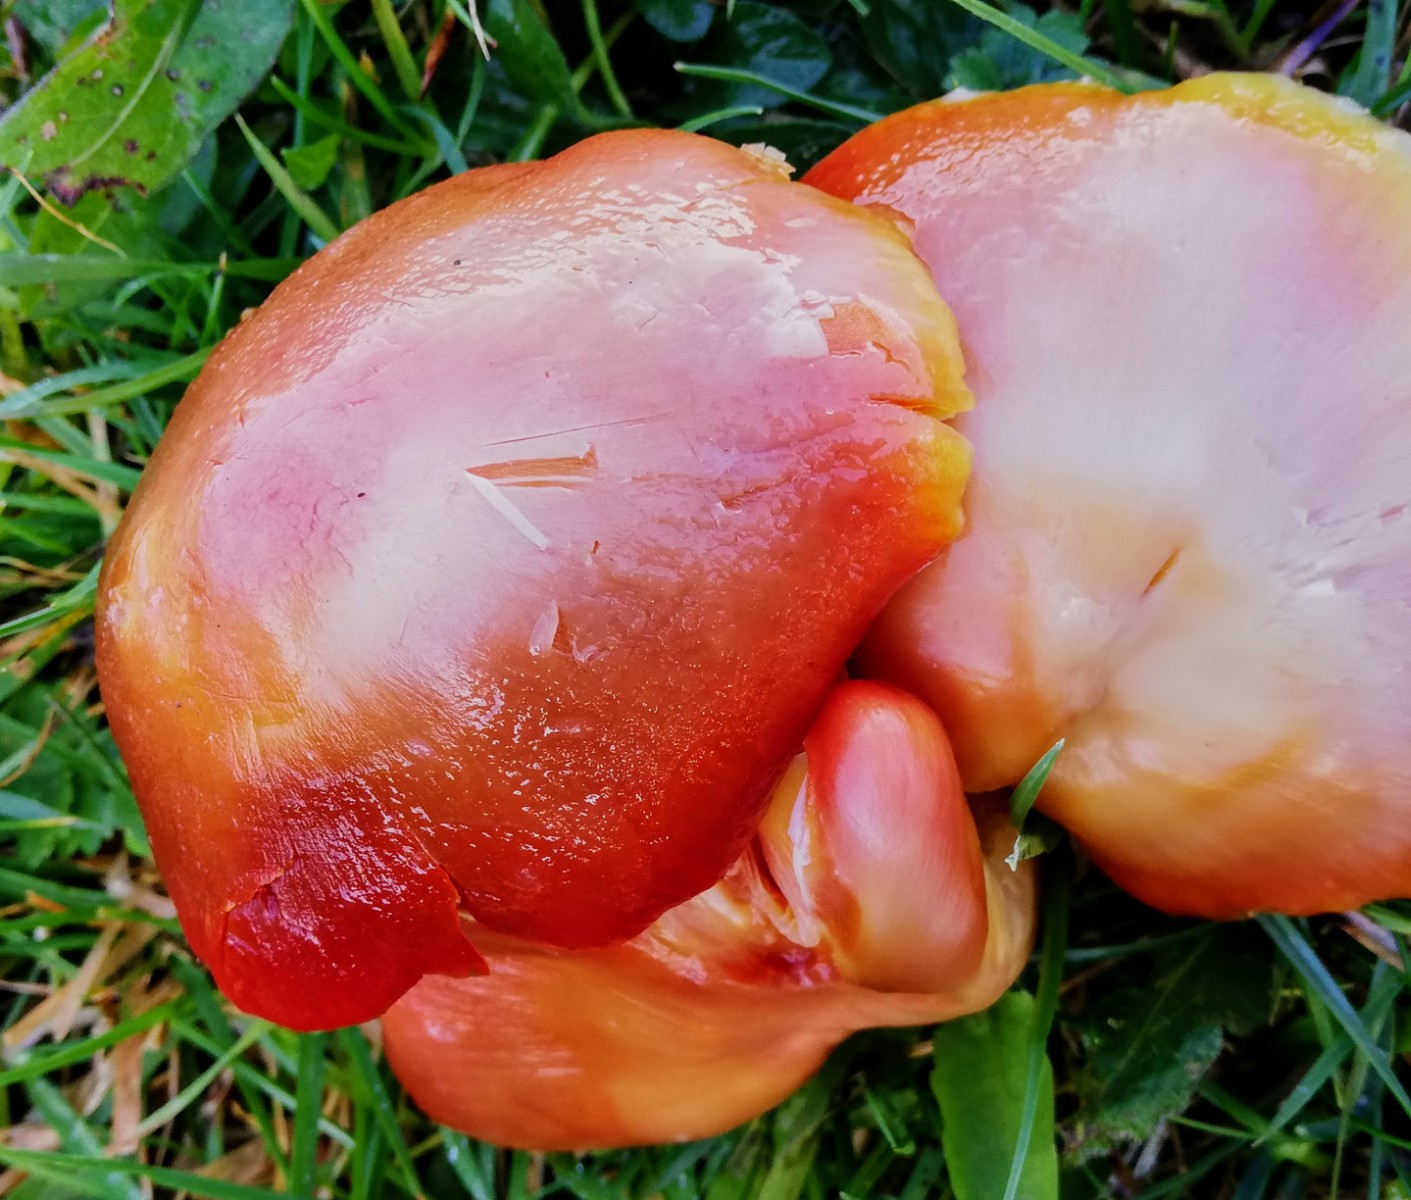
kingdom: Fungi
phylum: Basidiomycota
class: Agaricomycetes
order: Agaricales
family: Hygrophoraceae
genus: Hygrocybe
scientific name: Hygrocybe punicea
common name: skarlagen-vokshat
